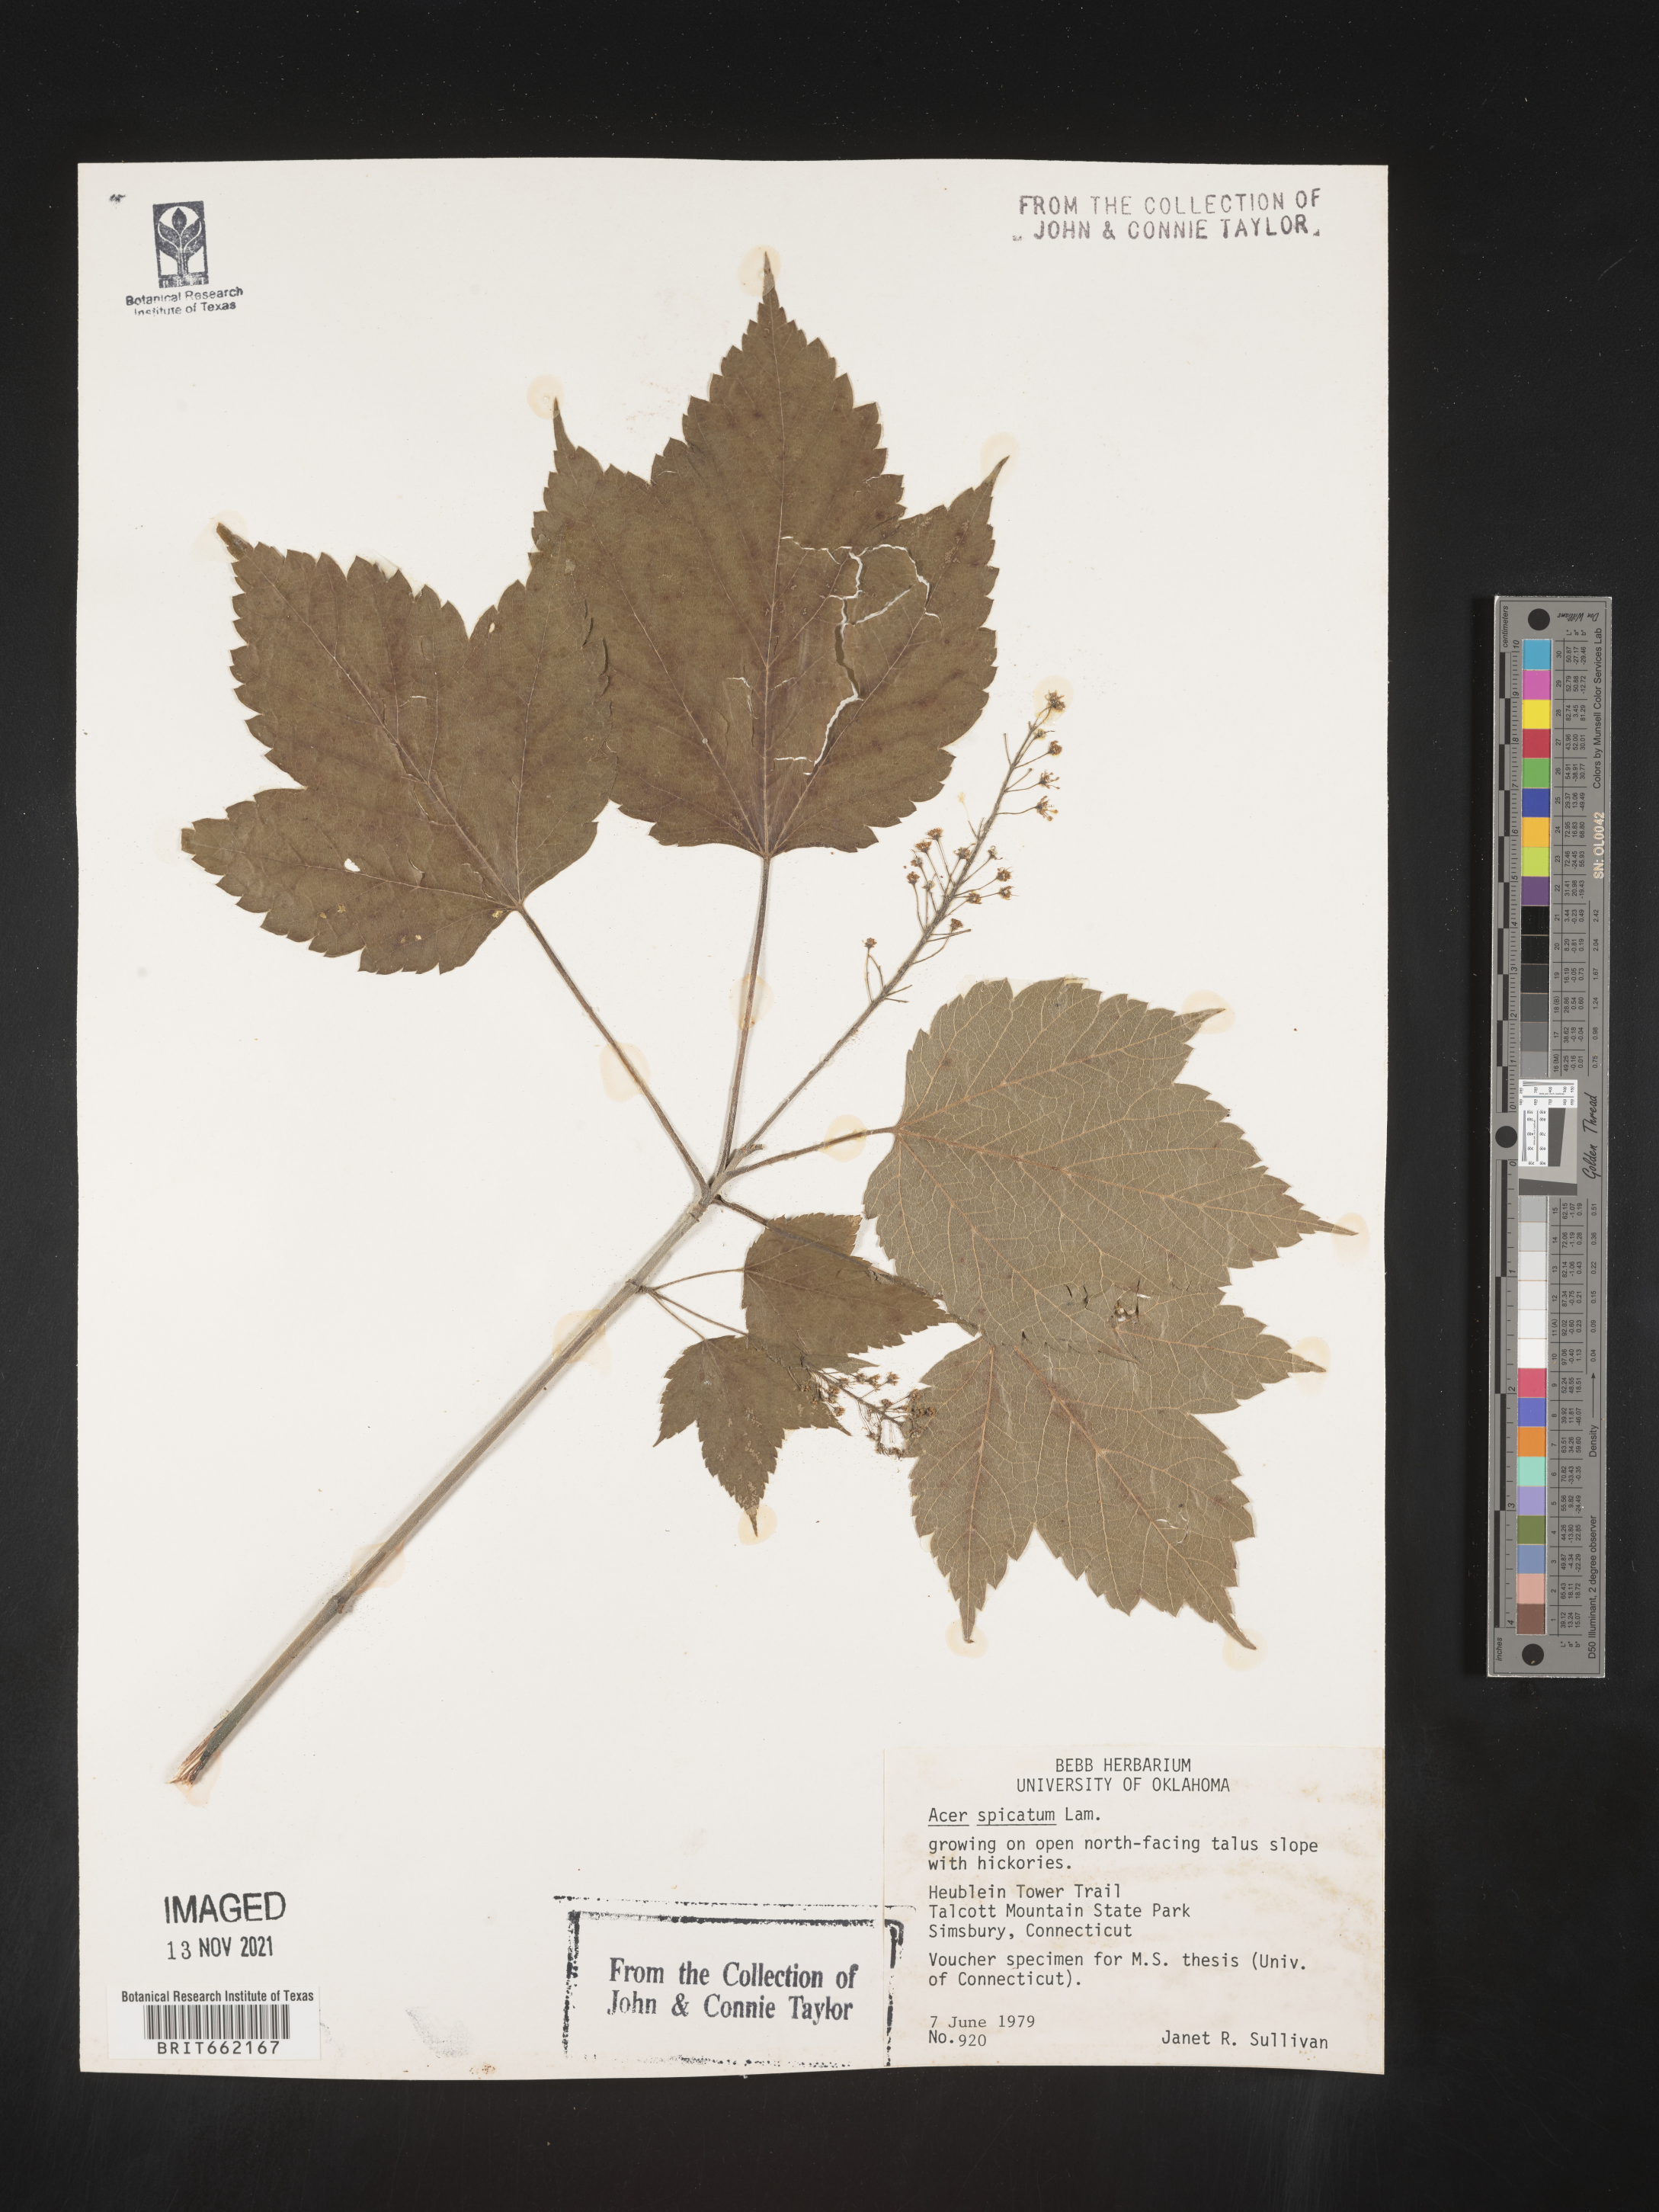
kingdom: Plantae
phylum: Tracheophyta
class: Magnoliopsida
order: Sapindales
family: Sapindaceae
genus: Acer
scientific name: Acer spicatum
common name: Mountain maple
